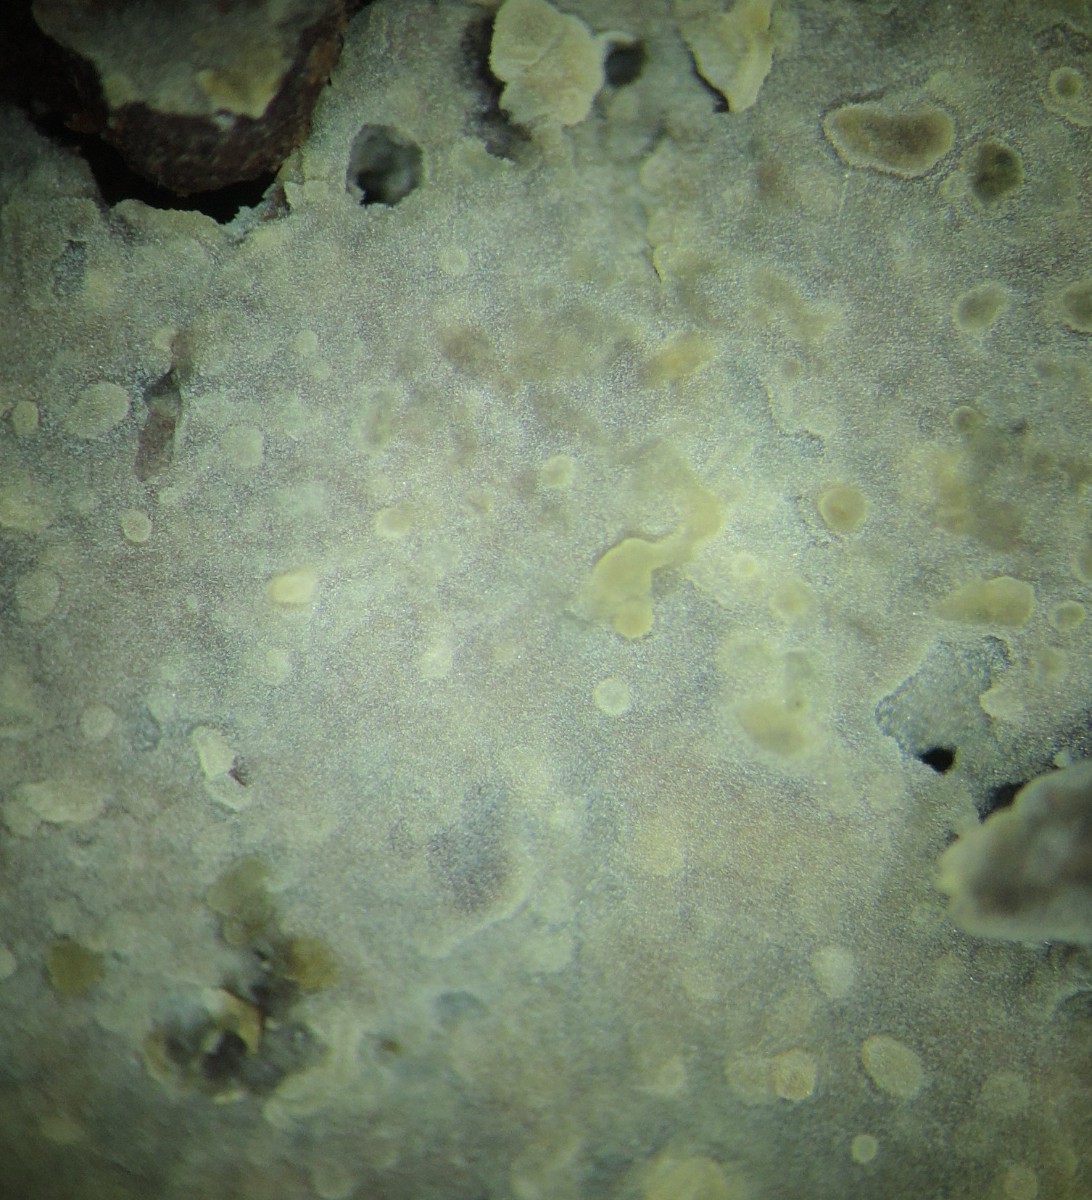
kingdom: Fungi
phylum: Basidiomycota
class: Agaricomycetes
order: Trechisporales
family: Hydnodontaceae
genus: Luellia
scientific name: Luellia recondita
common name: almindelig kanelhinde
